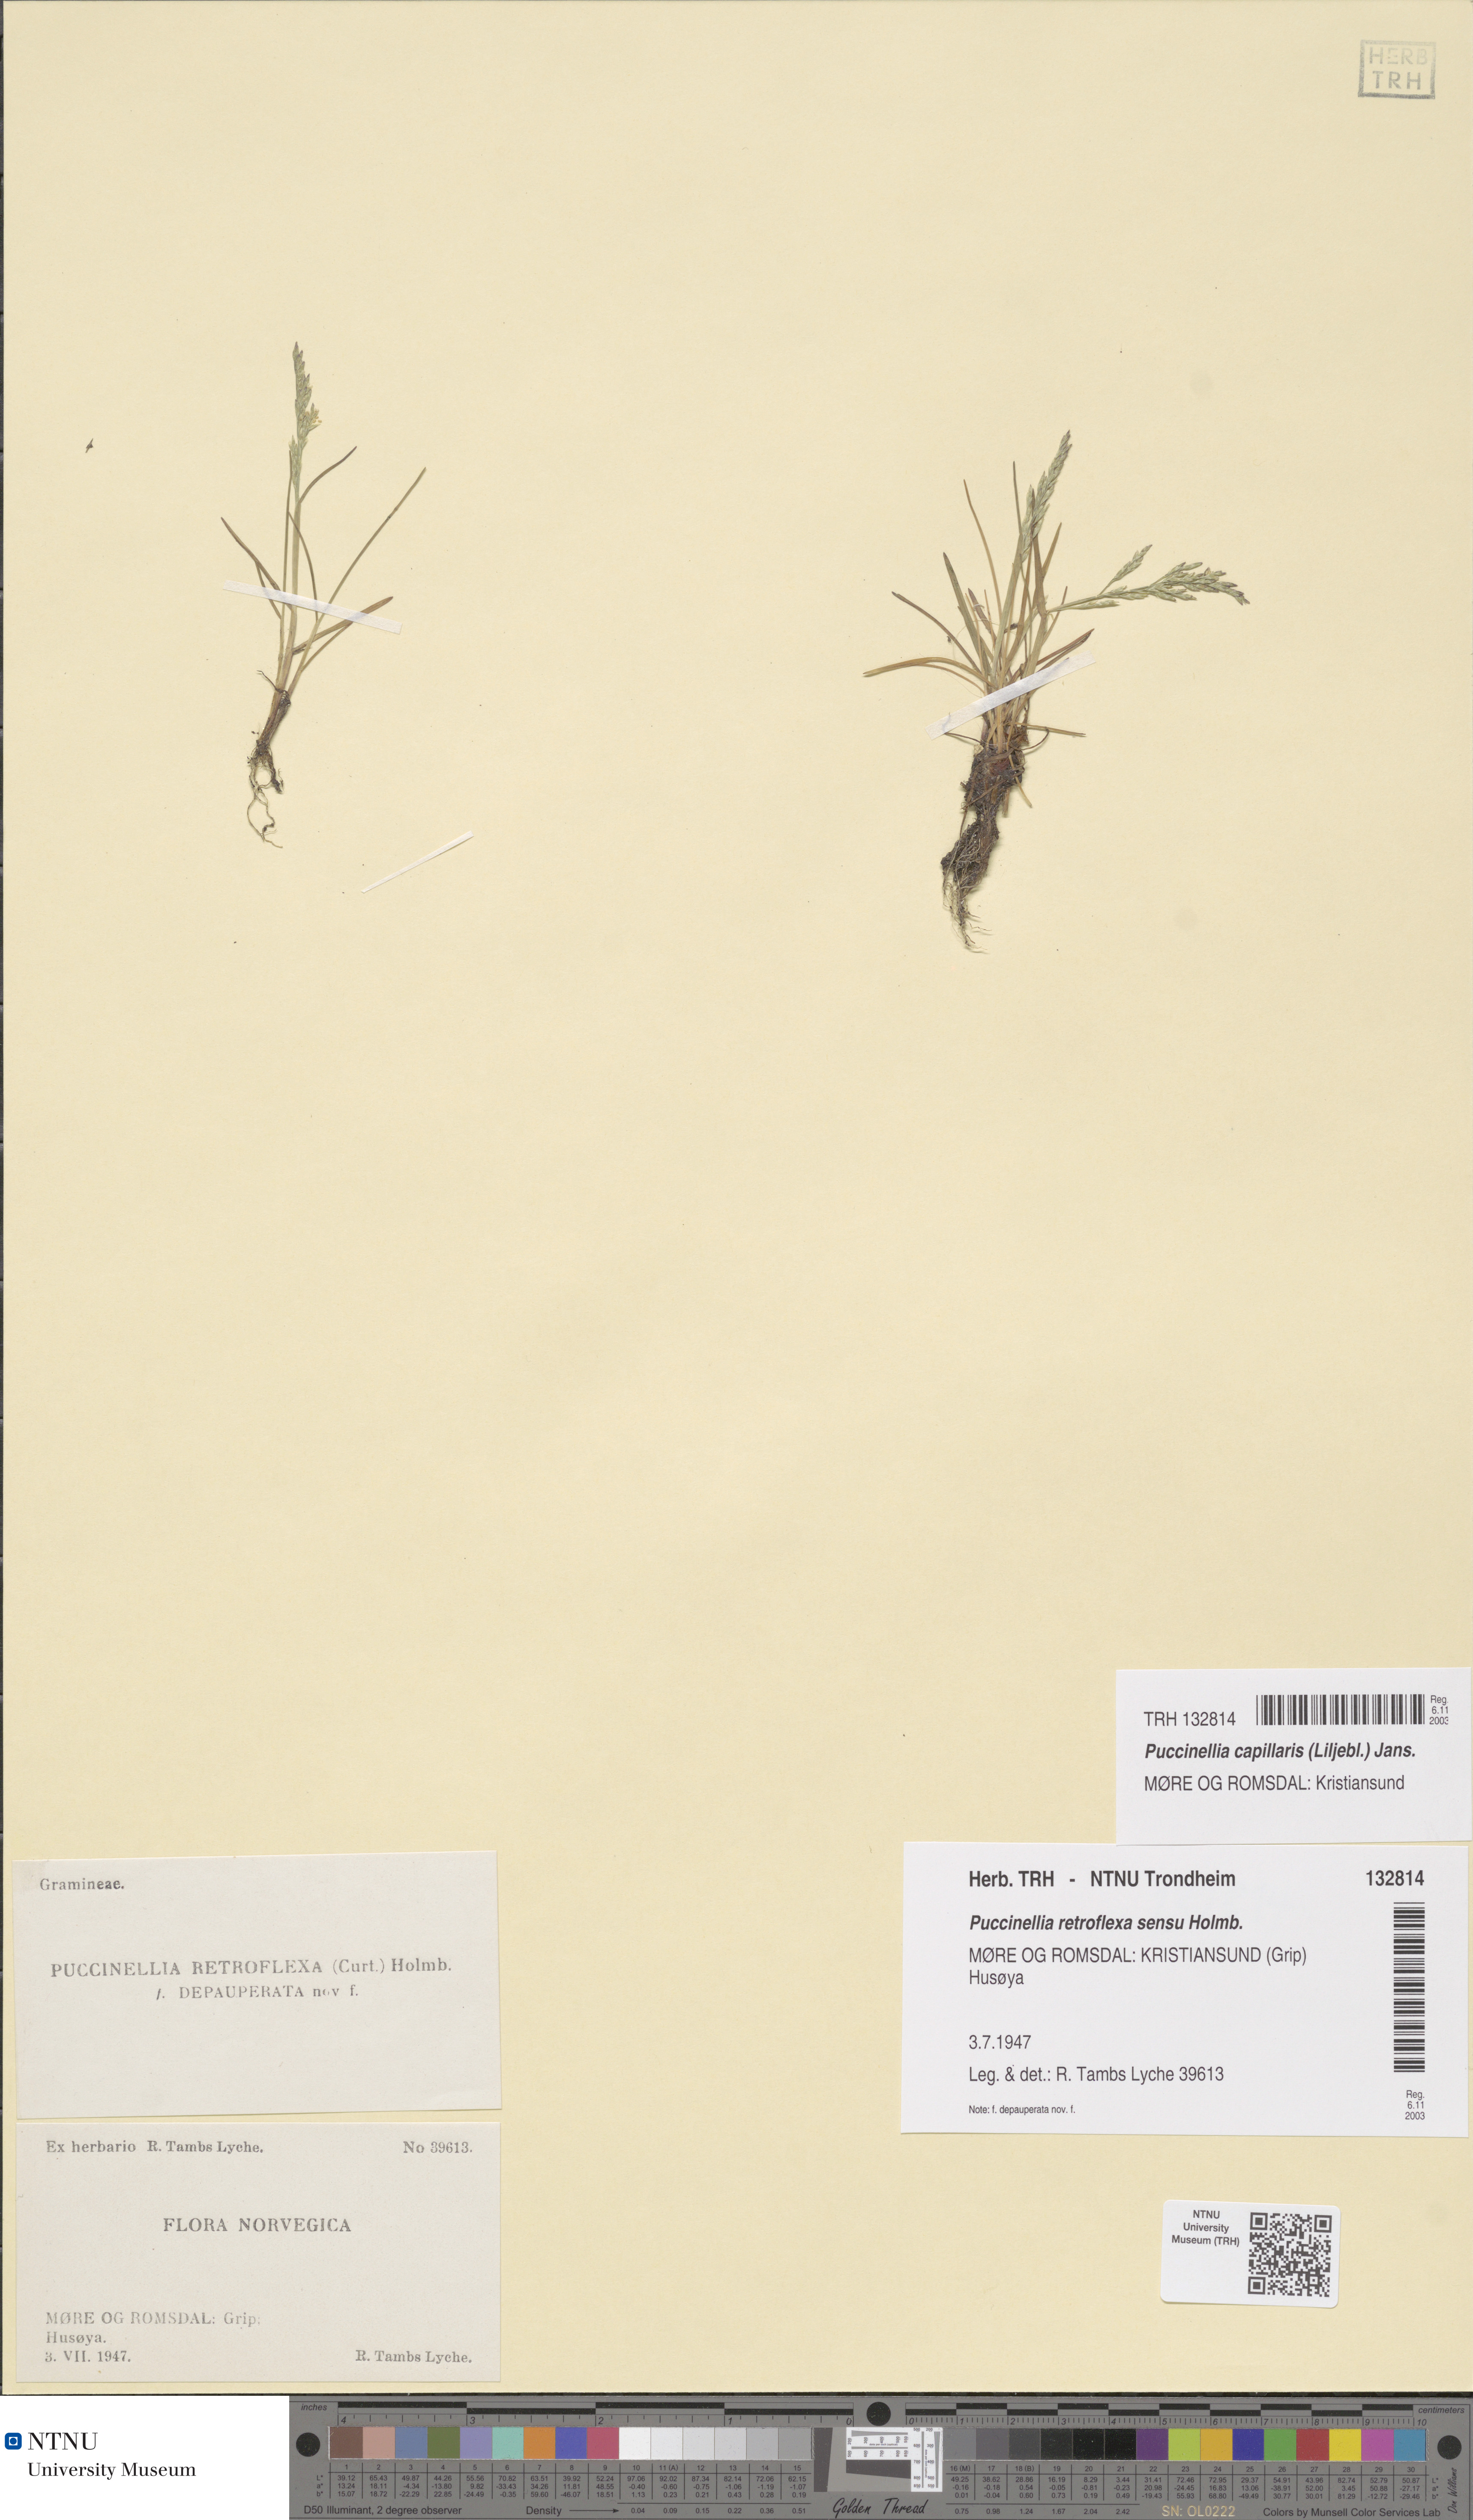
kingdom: Plantae
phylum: Tracheophyta
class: Liliopsida
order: Poales
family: Poaceae
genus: Puccinellia
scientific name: Puccinellia distans
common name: Weeping alkaligrass
